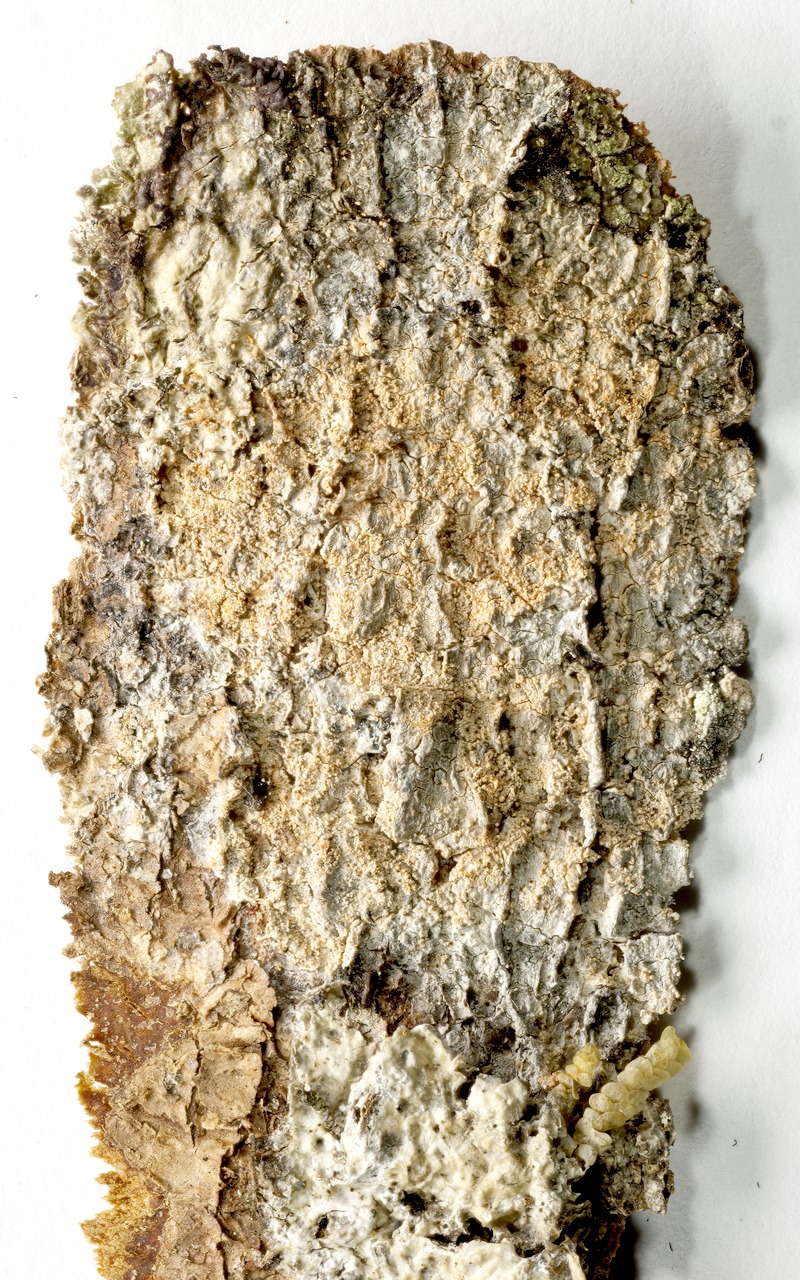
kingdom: Fungi
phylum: Ascomycota
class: Lecanoromycetes
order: Pertusariales
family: Pertusariaceae
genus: Lepra
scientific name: Lepra albescens
